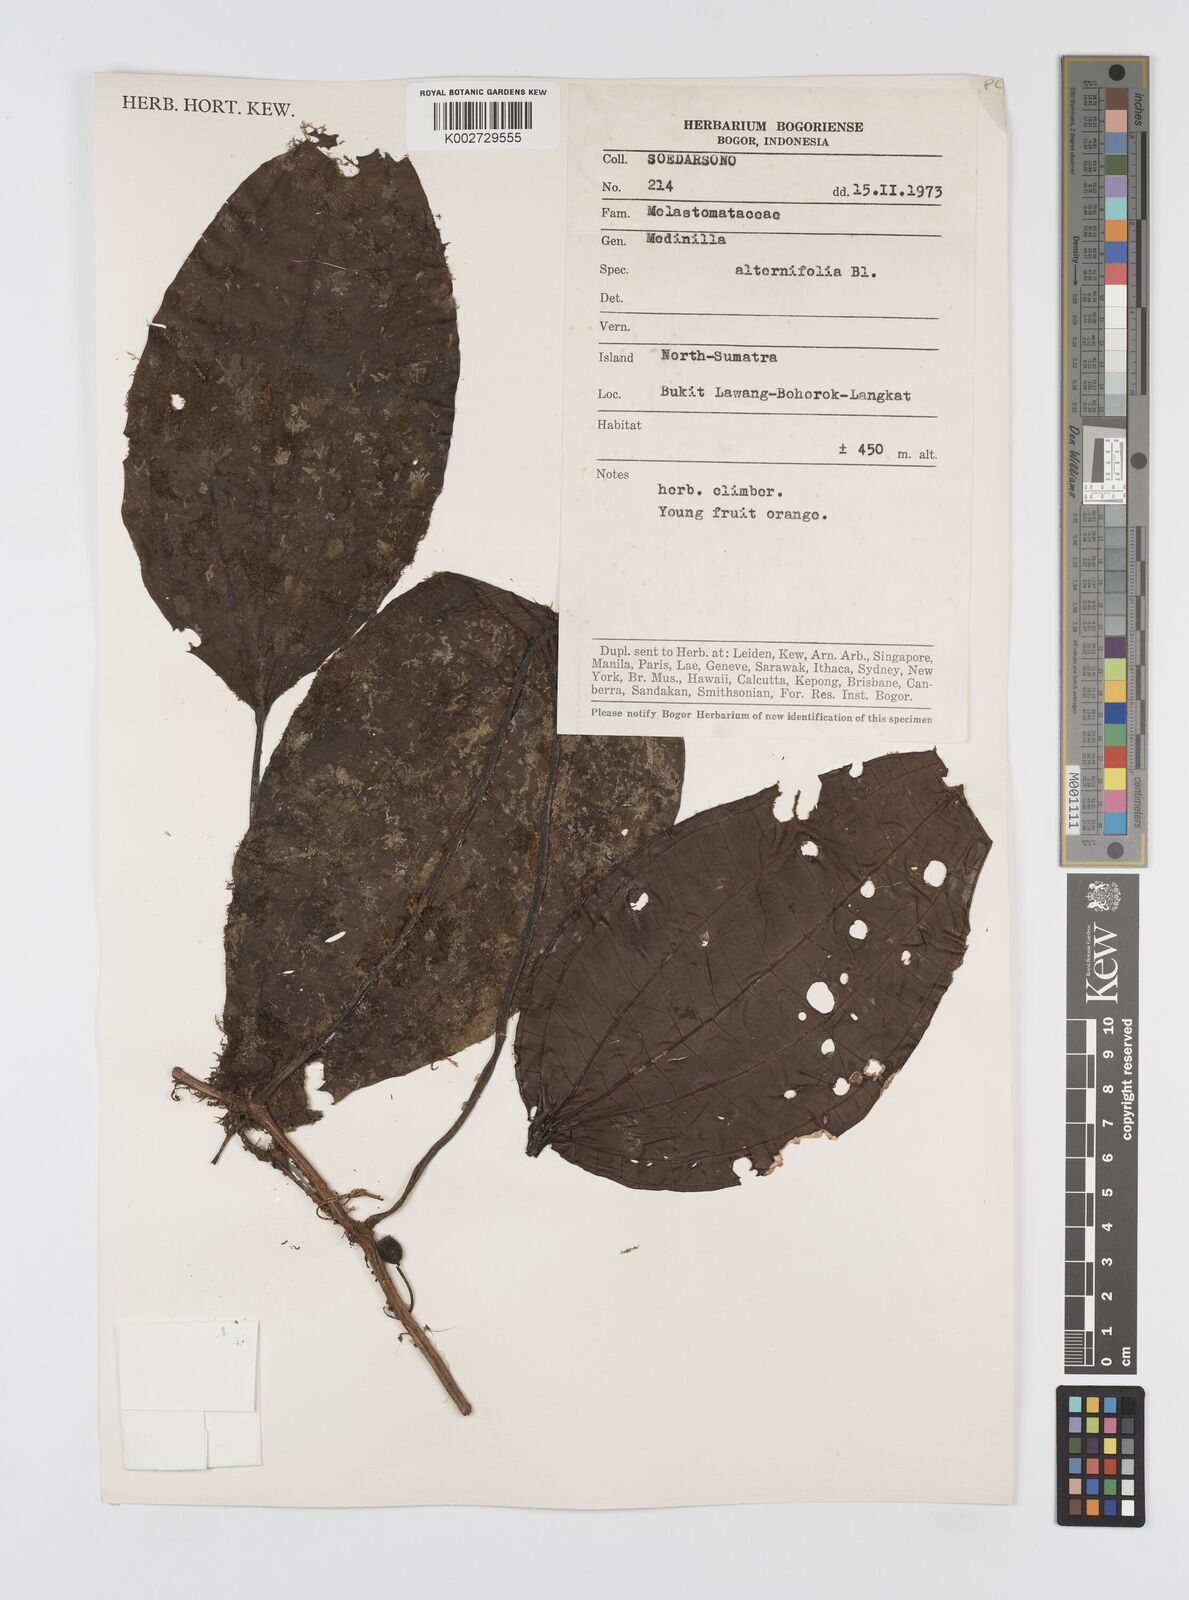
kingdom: Plantae
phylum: Tracheophyta
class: Magnoliopsida
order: Myrtales
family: Melastomataceae
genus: Heteroblemma
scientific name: Heteroblemma alternifolium
